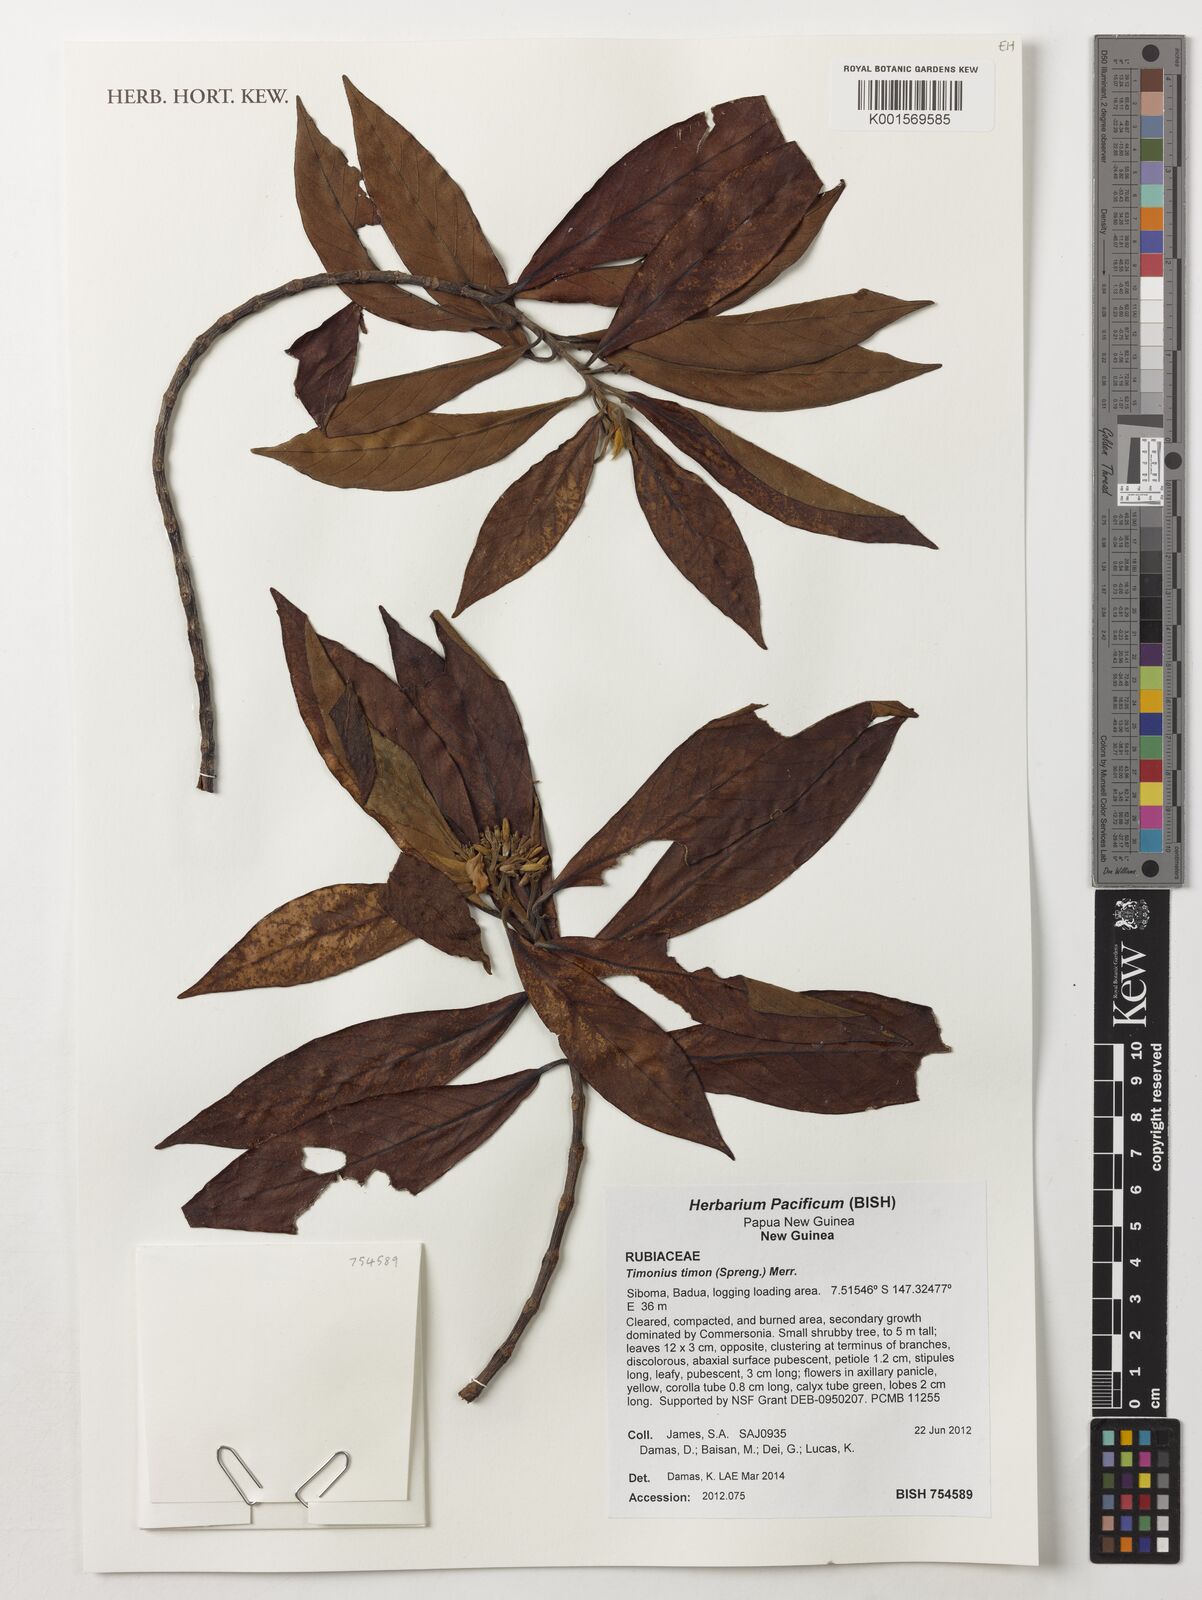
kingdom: Plantae
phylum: Tracheophyta
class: Magnoliopsida
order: Gentianales
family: Rubiaceae
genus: Timonius
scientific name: Timonius timon
